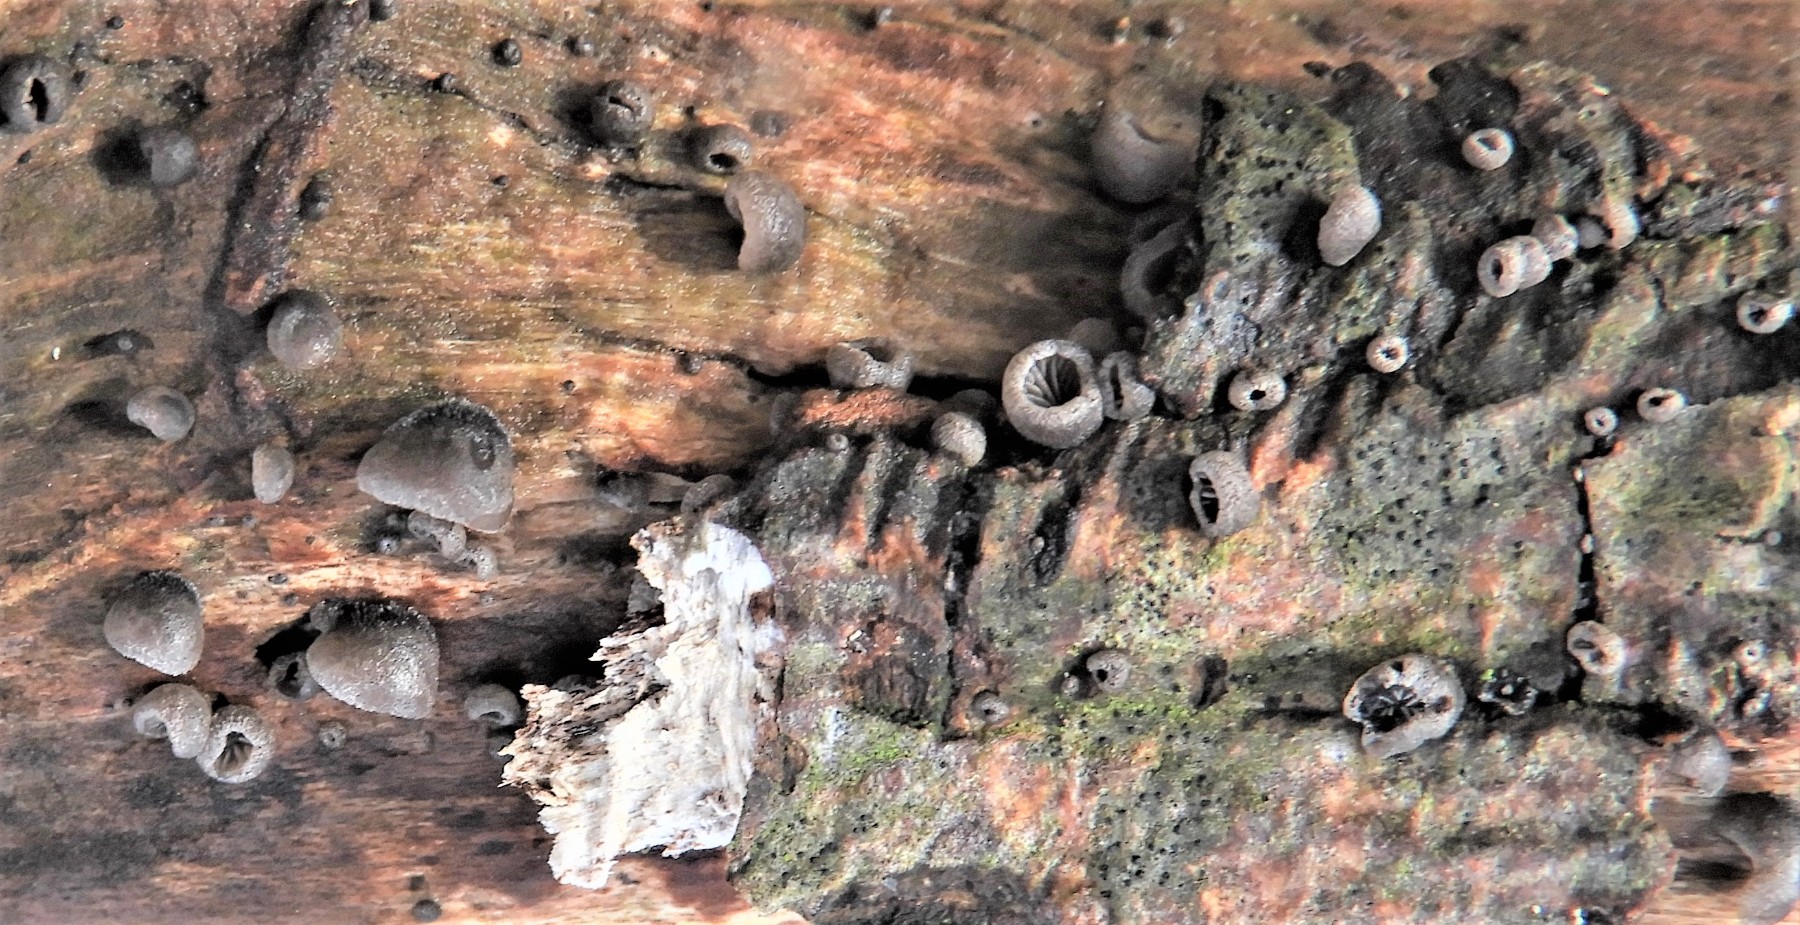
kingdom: Fungi
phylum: Basidiomycota
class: Agaricomycetes
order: Agaricales
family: Pleurotaceae
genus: Resupinatus
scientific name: Resupinatus trichotis
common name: mørkfiltet barkhat
